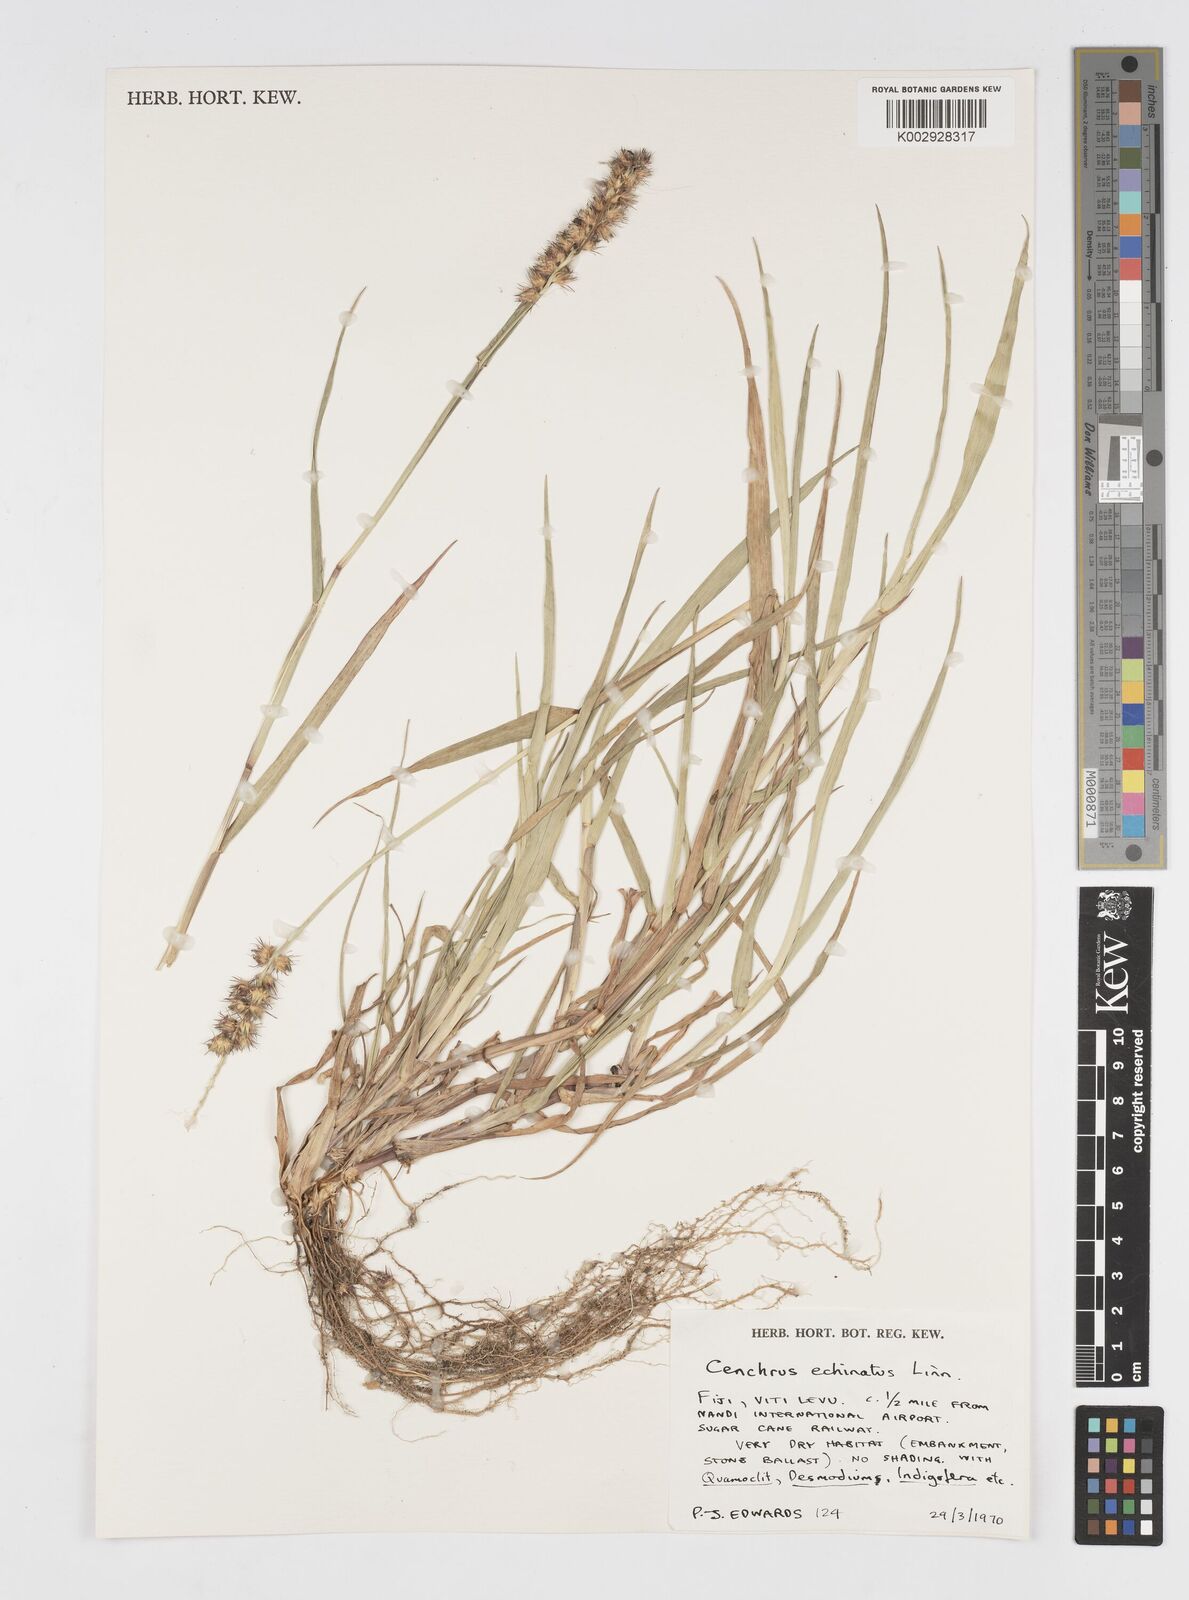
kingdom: Plantae
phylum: Tracheophyta
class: Liliopsida
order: Poales
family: Poaceae
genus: Cenchrus
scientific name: Cenchrus echinatus
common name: Southern sandbur
